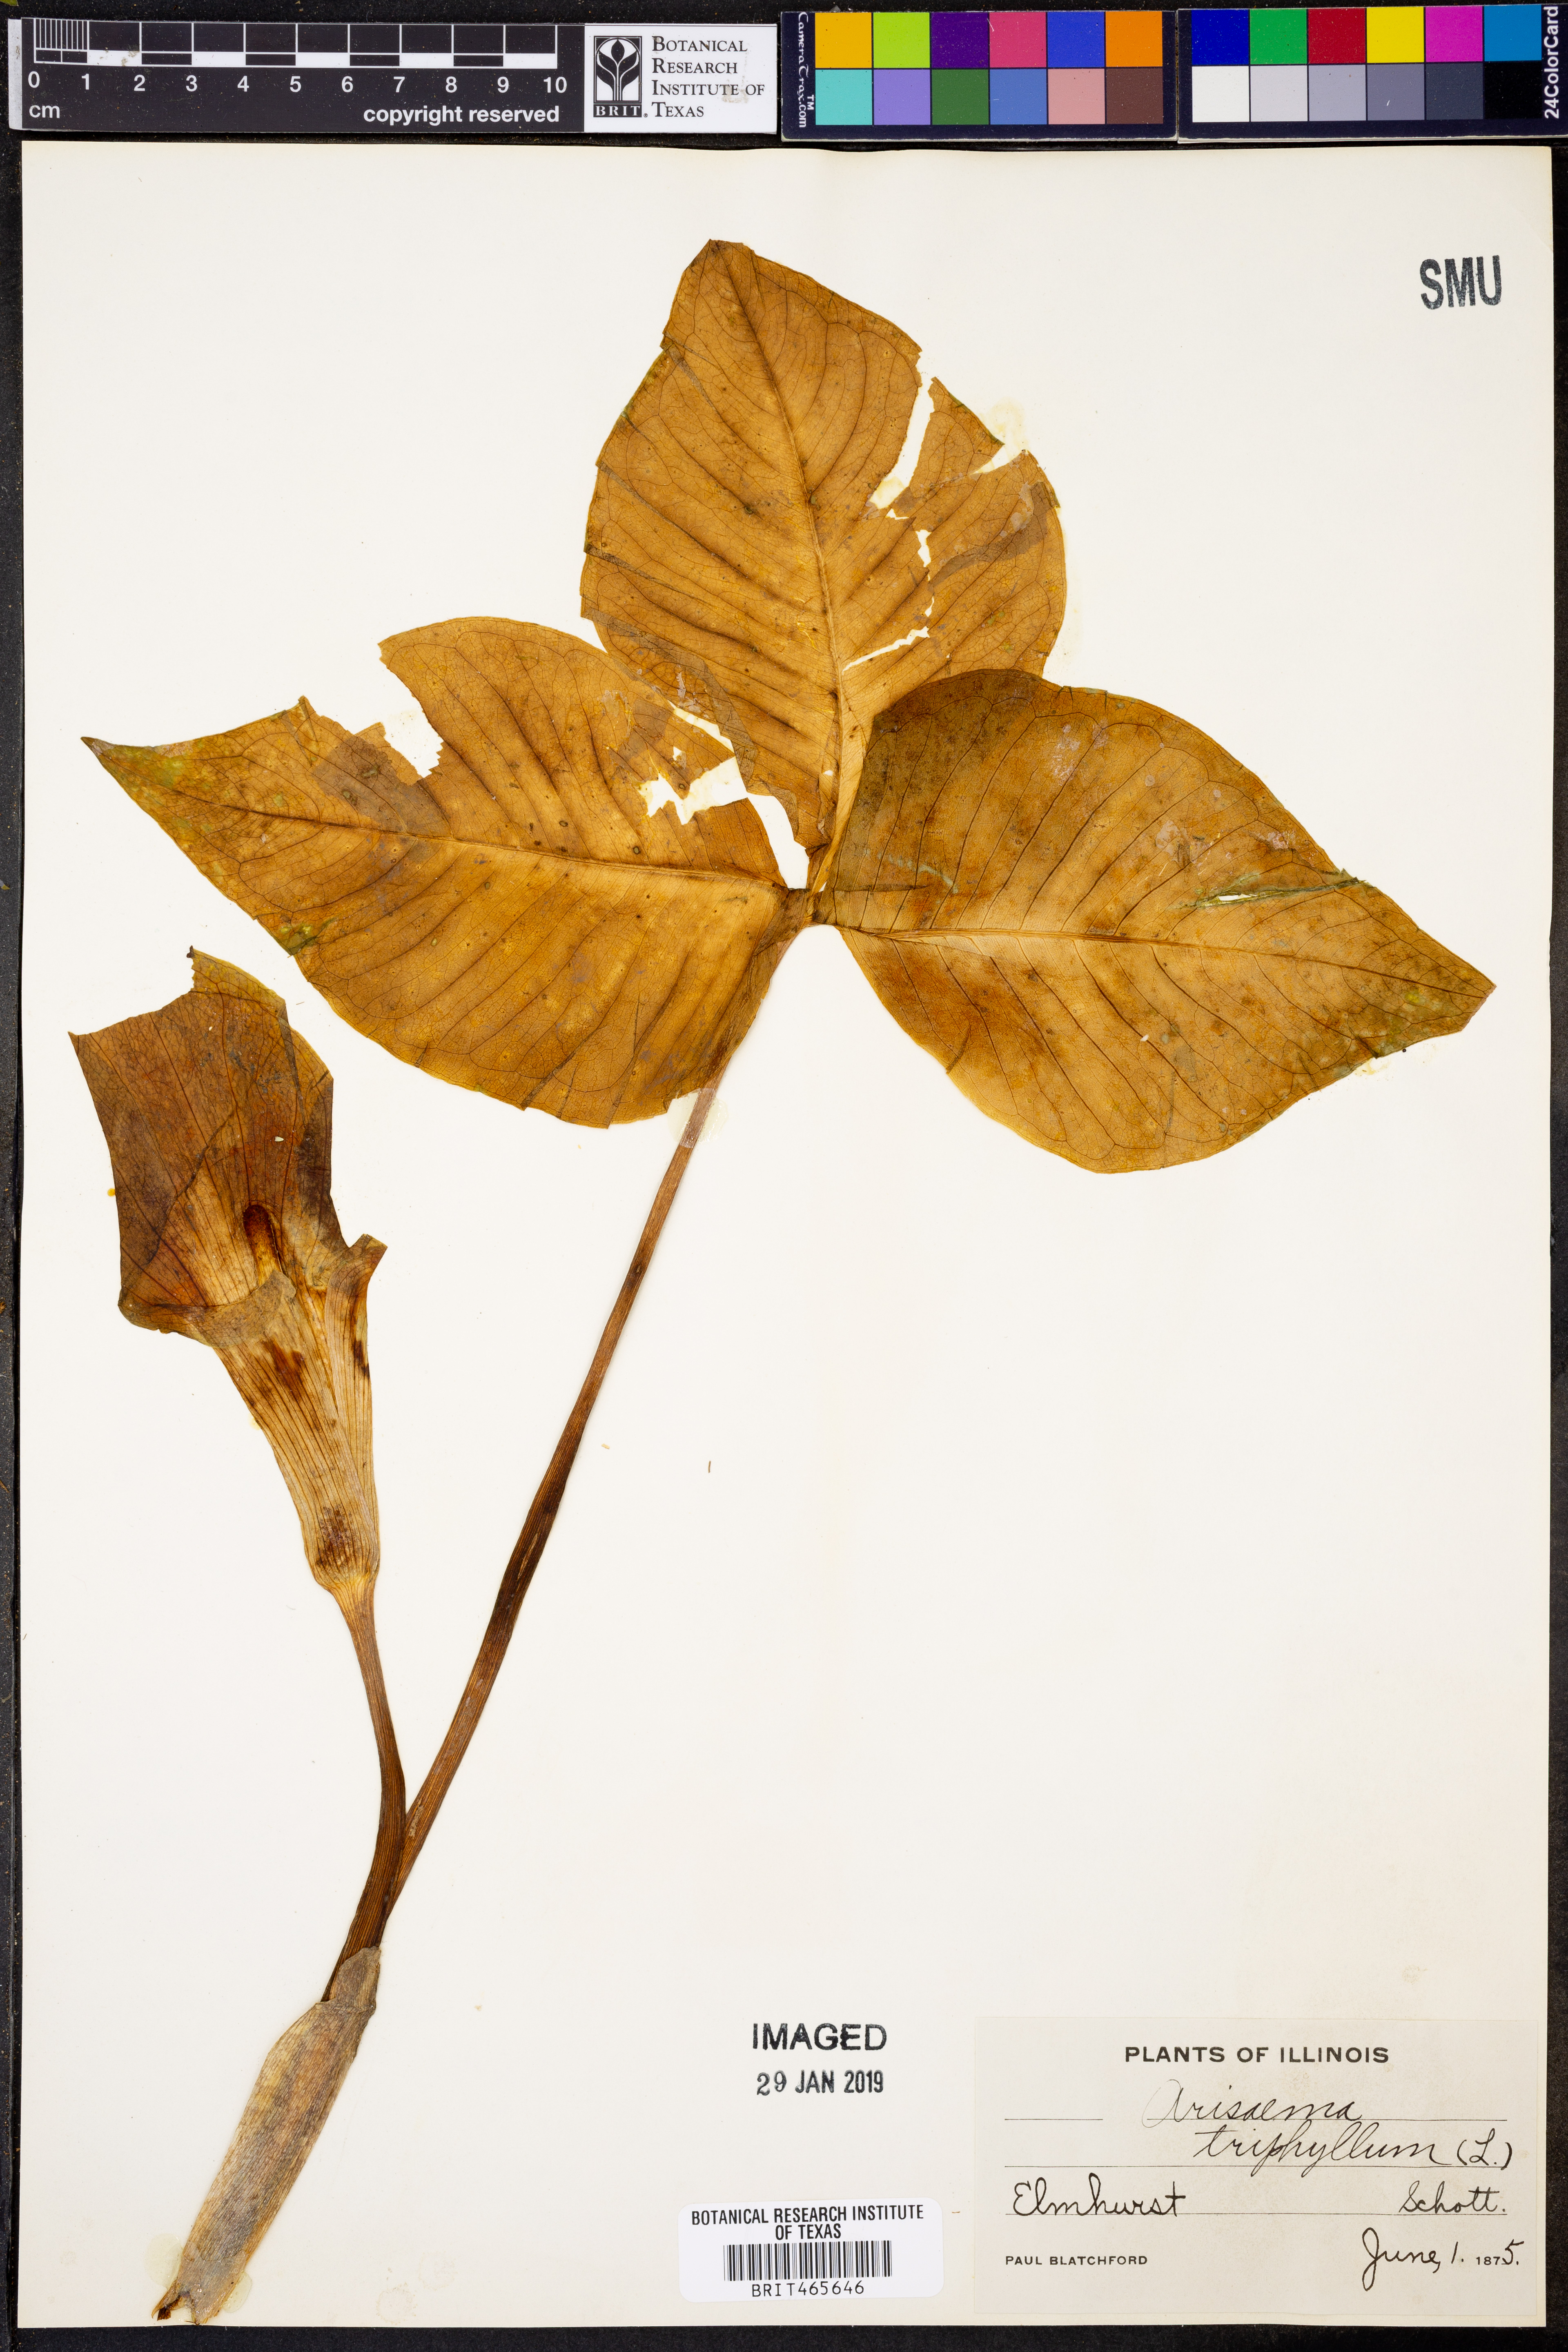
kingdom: Plantae
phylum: Tracheophyta
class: Liliopsida
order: Alismatales
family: Araceae
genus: Arisaema
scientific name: Arisaema triphyllum
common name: Jack-in-the-pulpit
